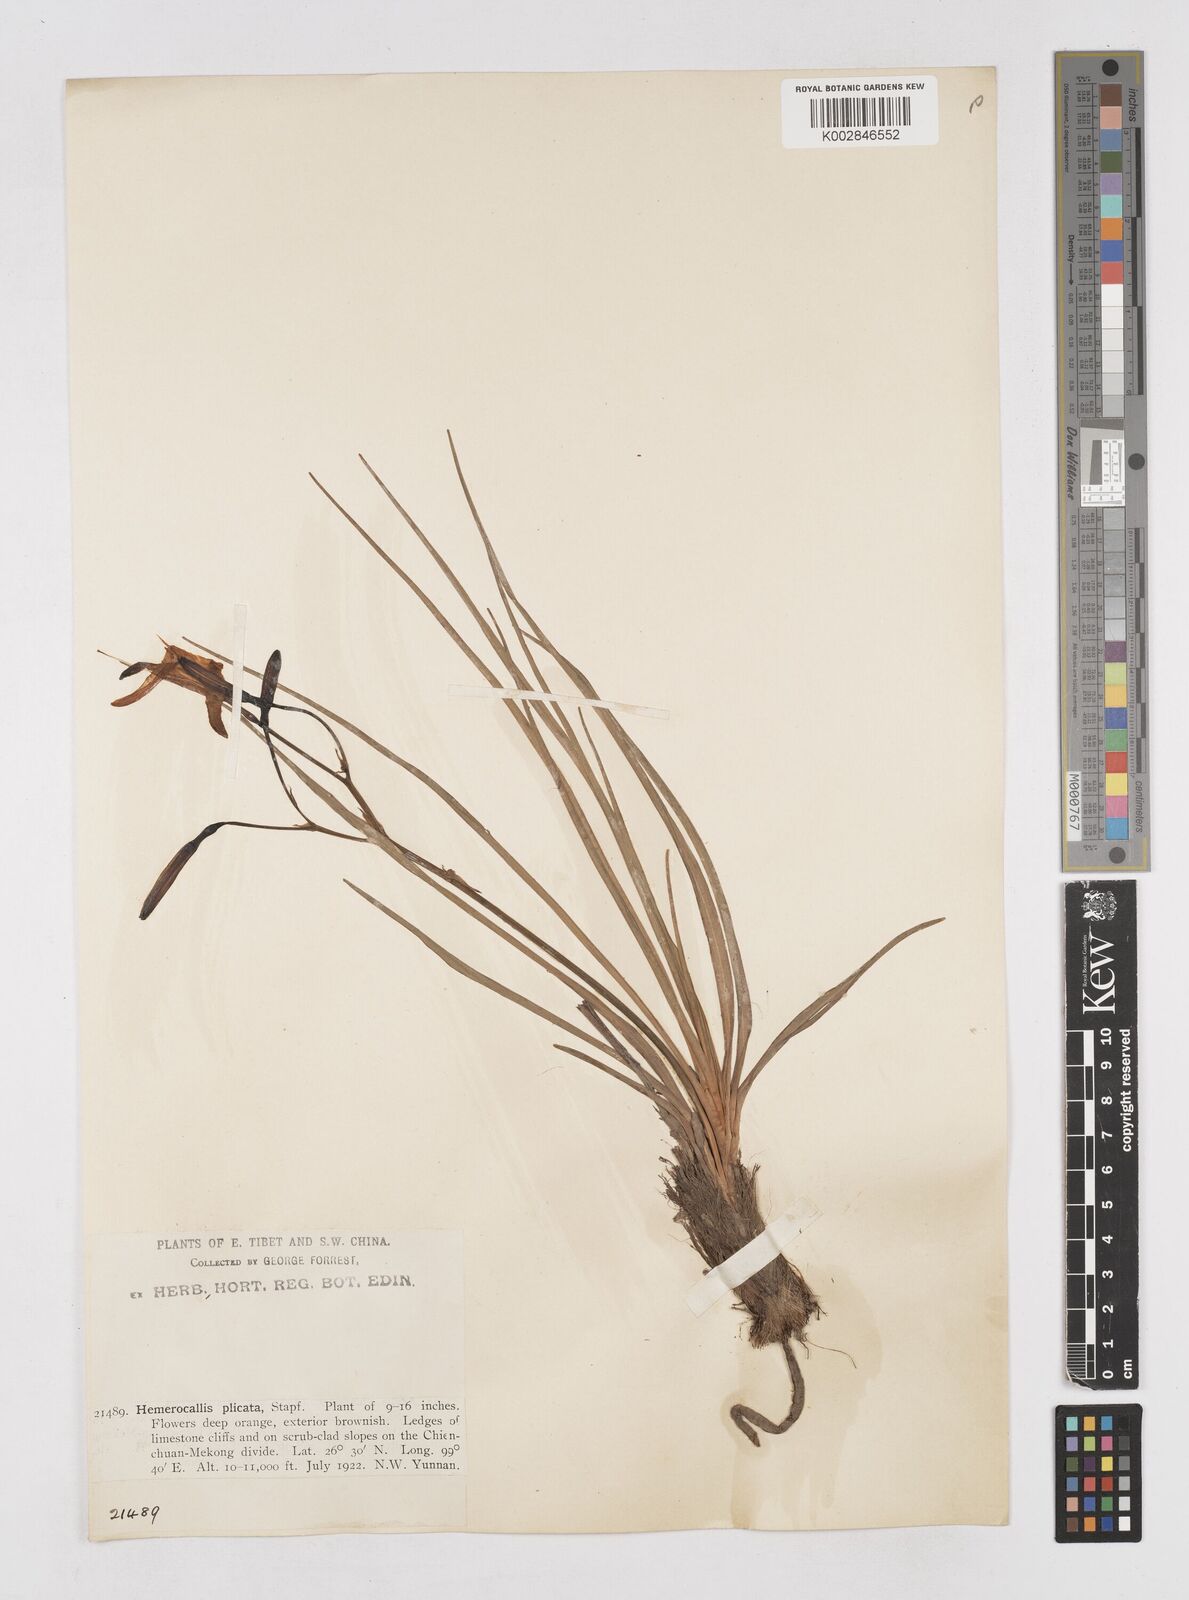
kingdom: Plantae
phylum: Tracheophyta
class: Liliopsida
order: Asparagales
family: Asphodelaceae
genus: Hemerocallis
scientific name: Hemerocallis plicata
